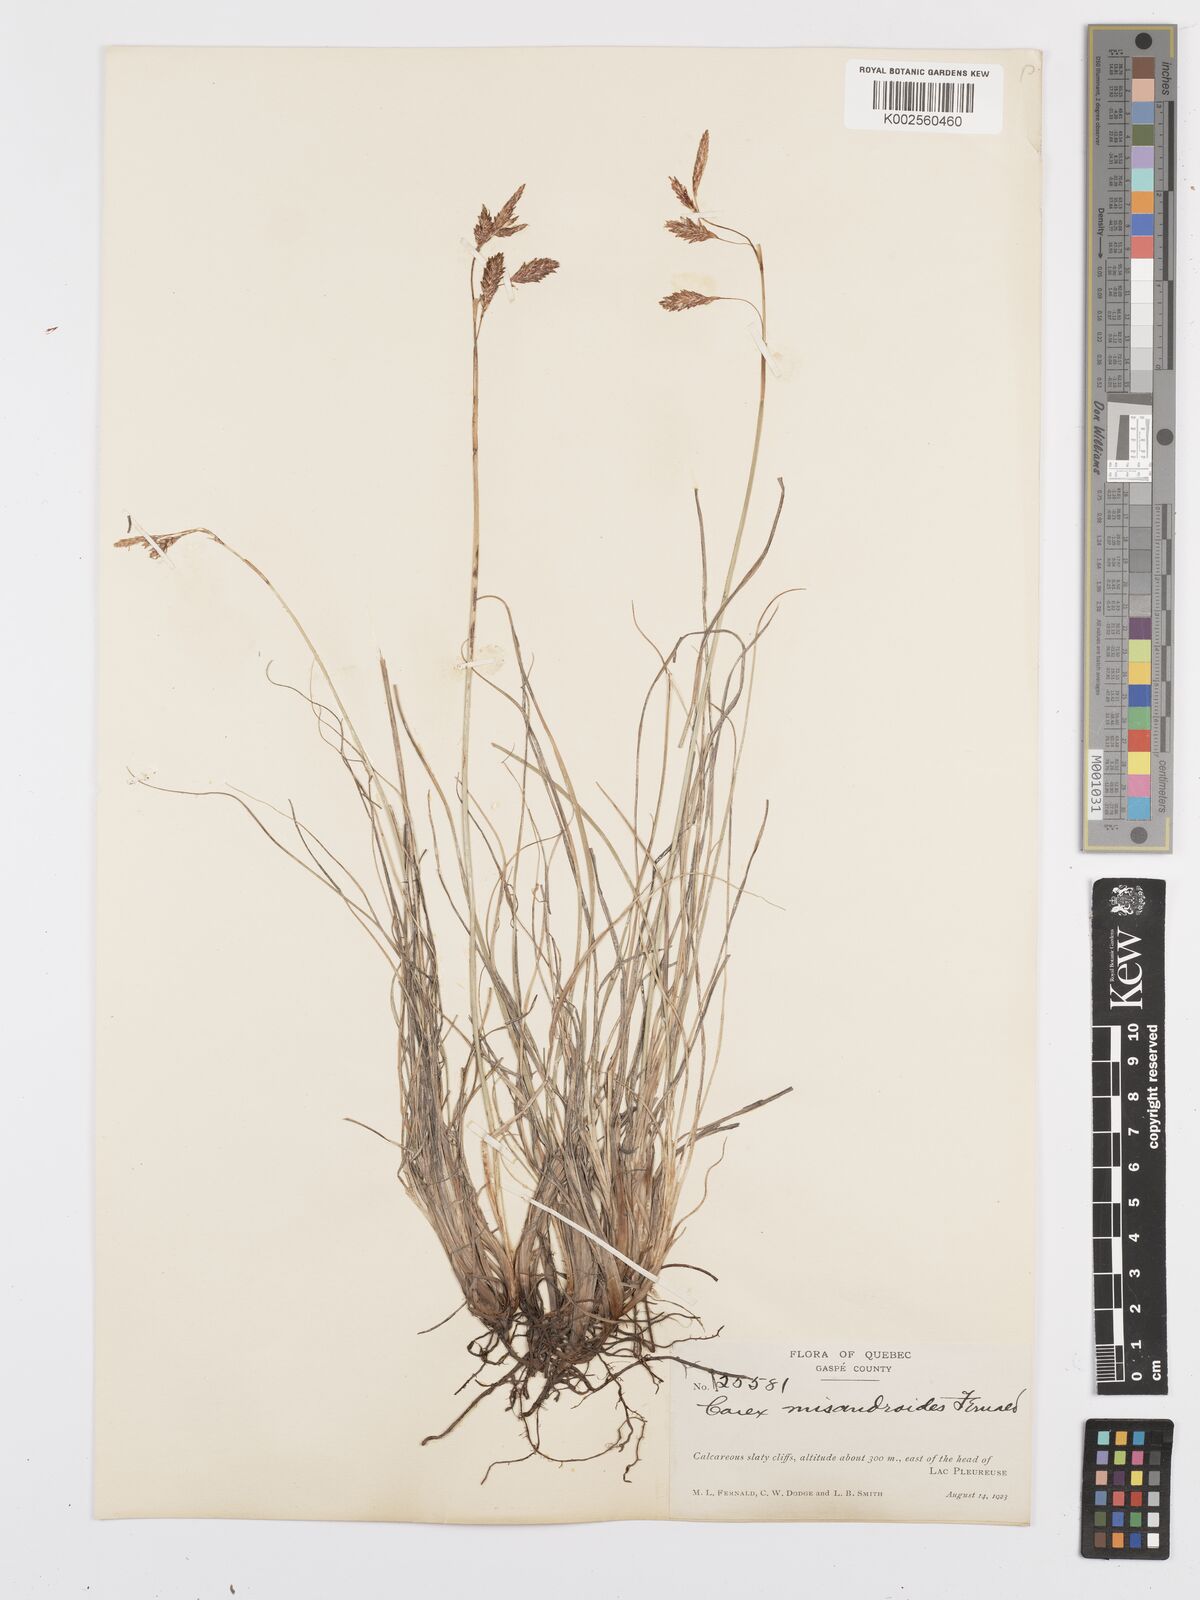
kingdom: Plantae
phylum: Tracheophyta
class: Liliopsida
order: Poales
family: Cyperaceae
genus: Carex
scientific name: Carex petricosa
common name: Rock sedge
